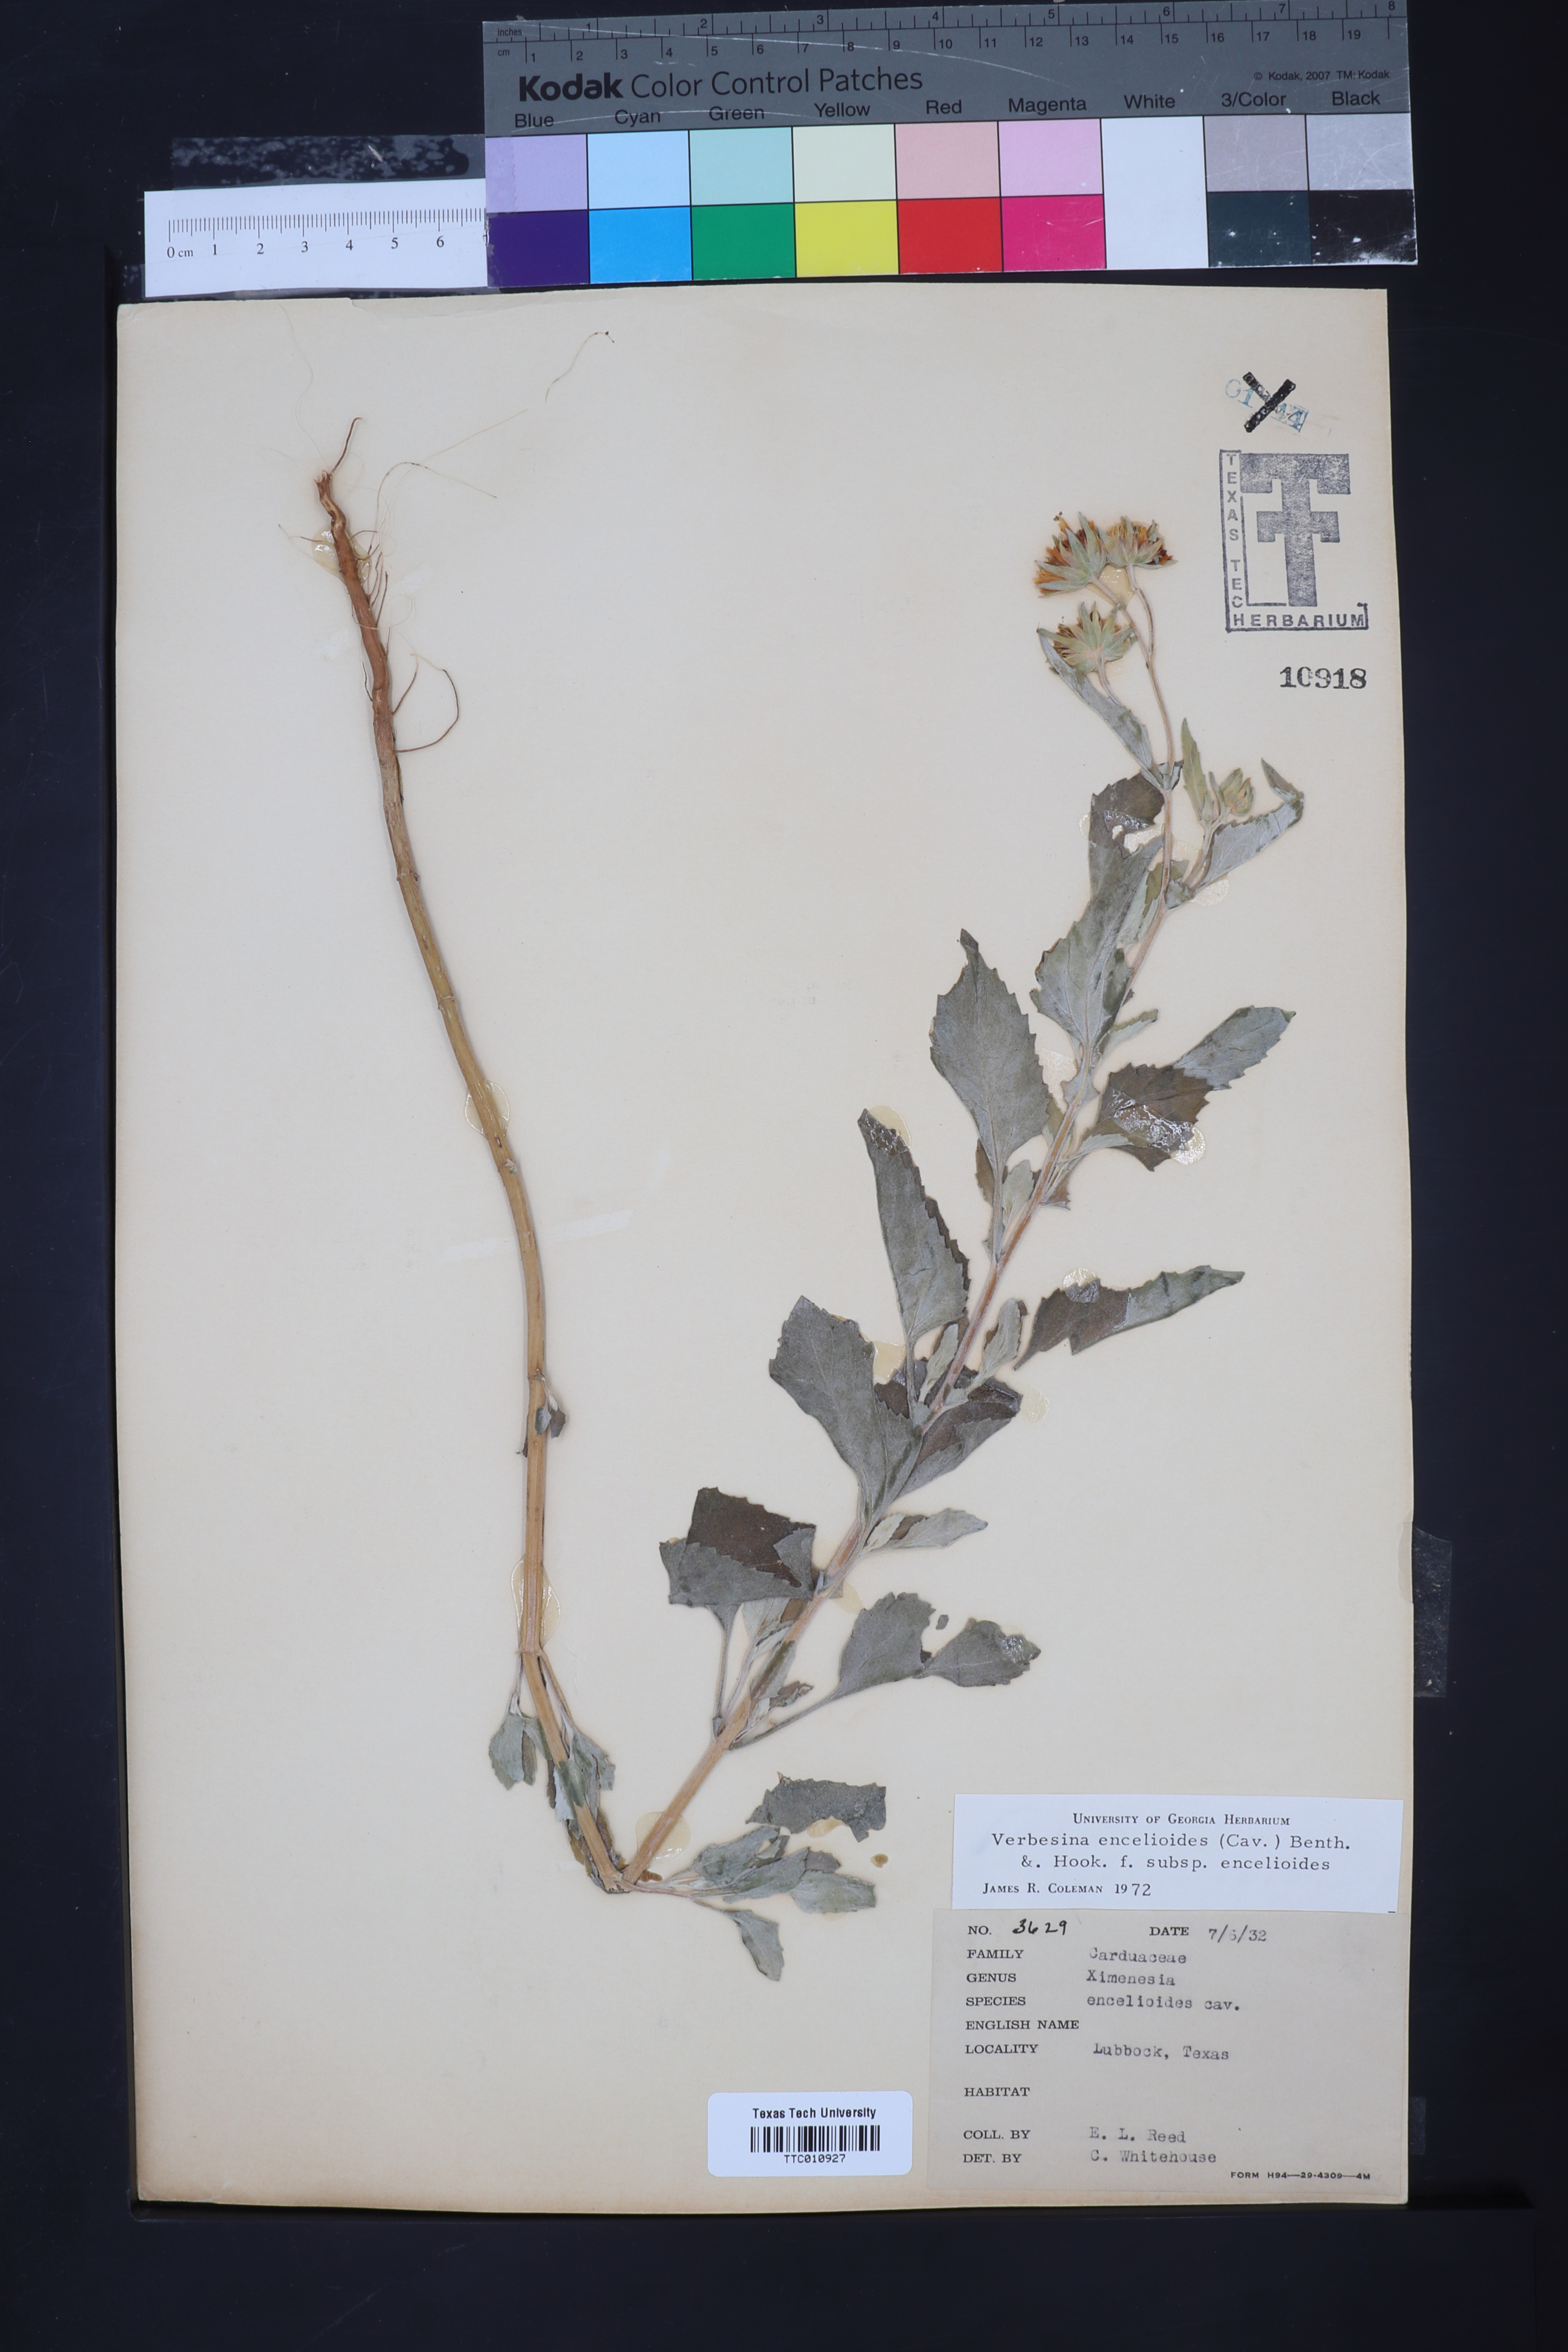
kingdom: Plantae
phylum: Tracheophyta
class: Magnoliopsida
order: Asterales
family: Asteraceae
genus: Verbesina
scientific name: Verbesina encelioides
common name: Golden crownbeard
